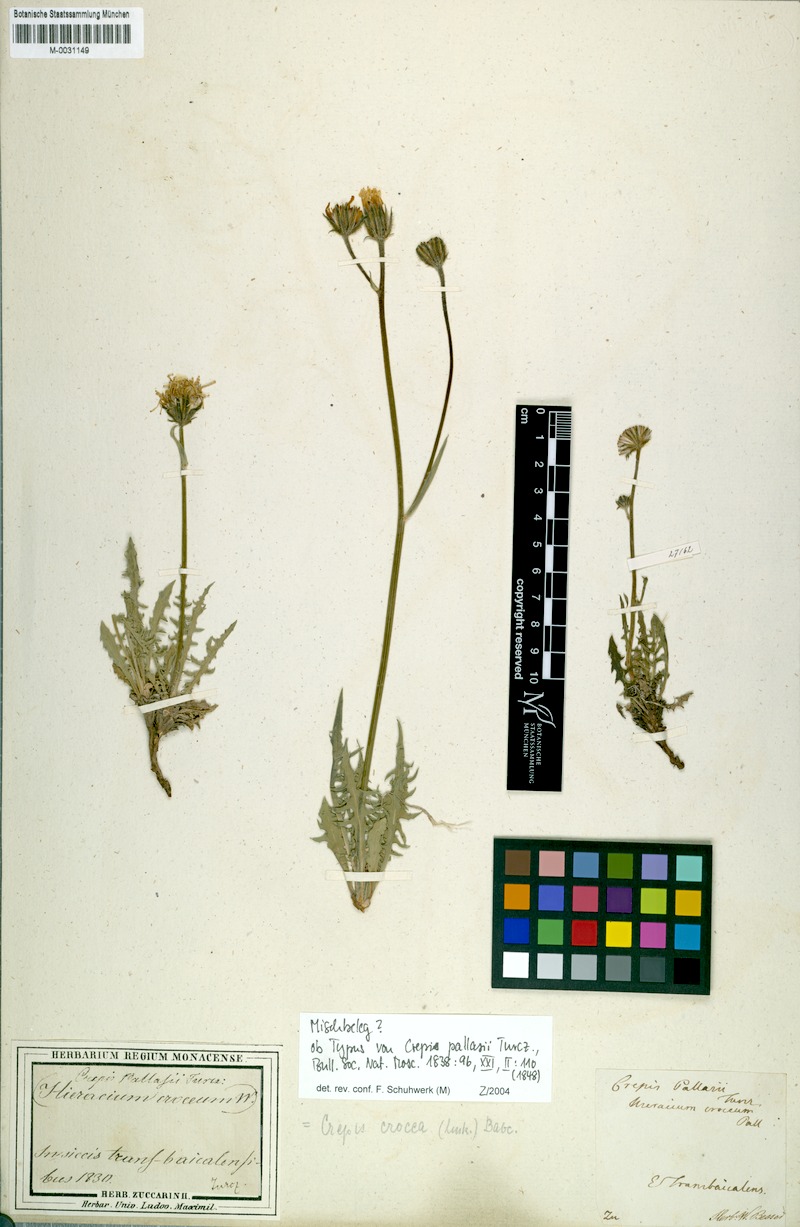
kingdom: Plantae
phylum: Tracheophyta
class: Magnoliopsida
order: Asterales
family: Asteraceae
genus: Crepis
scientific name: Crepis crocea
